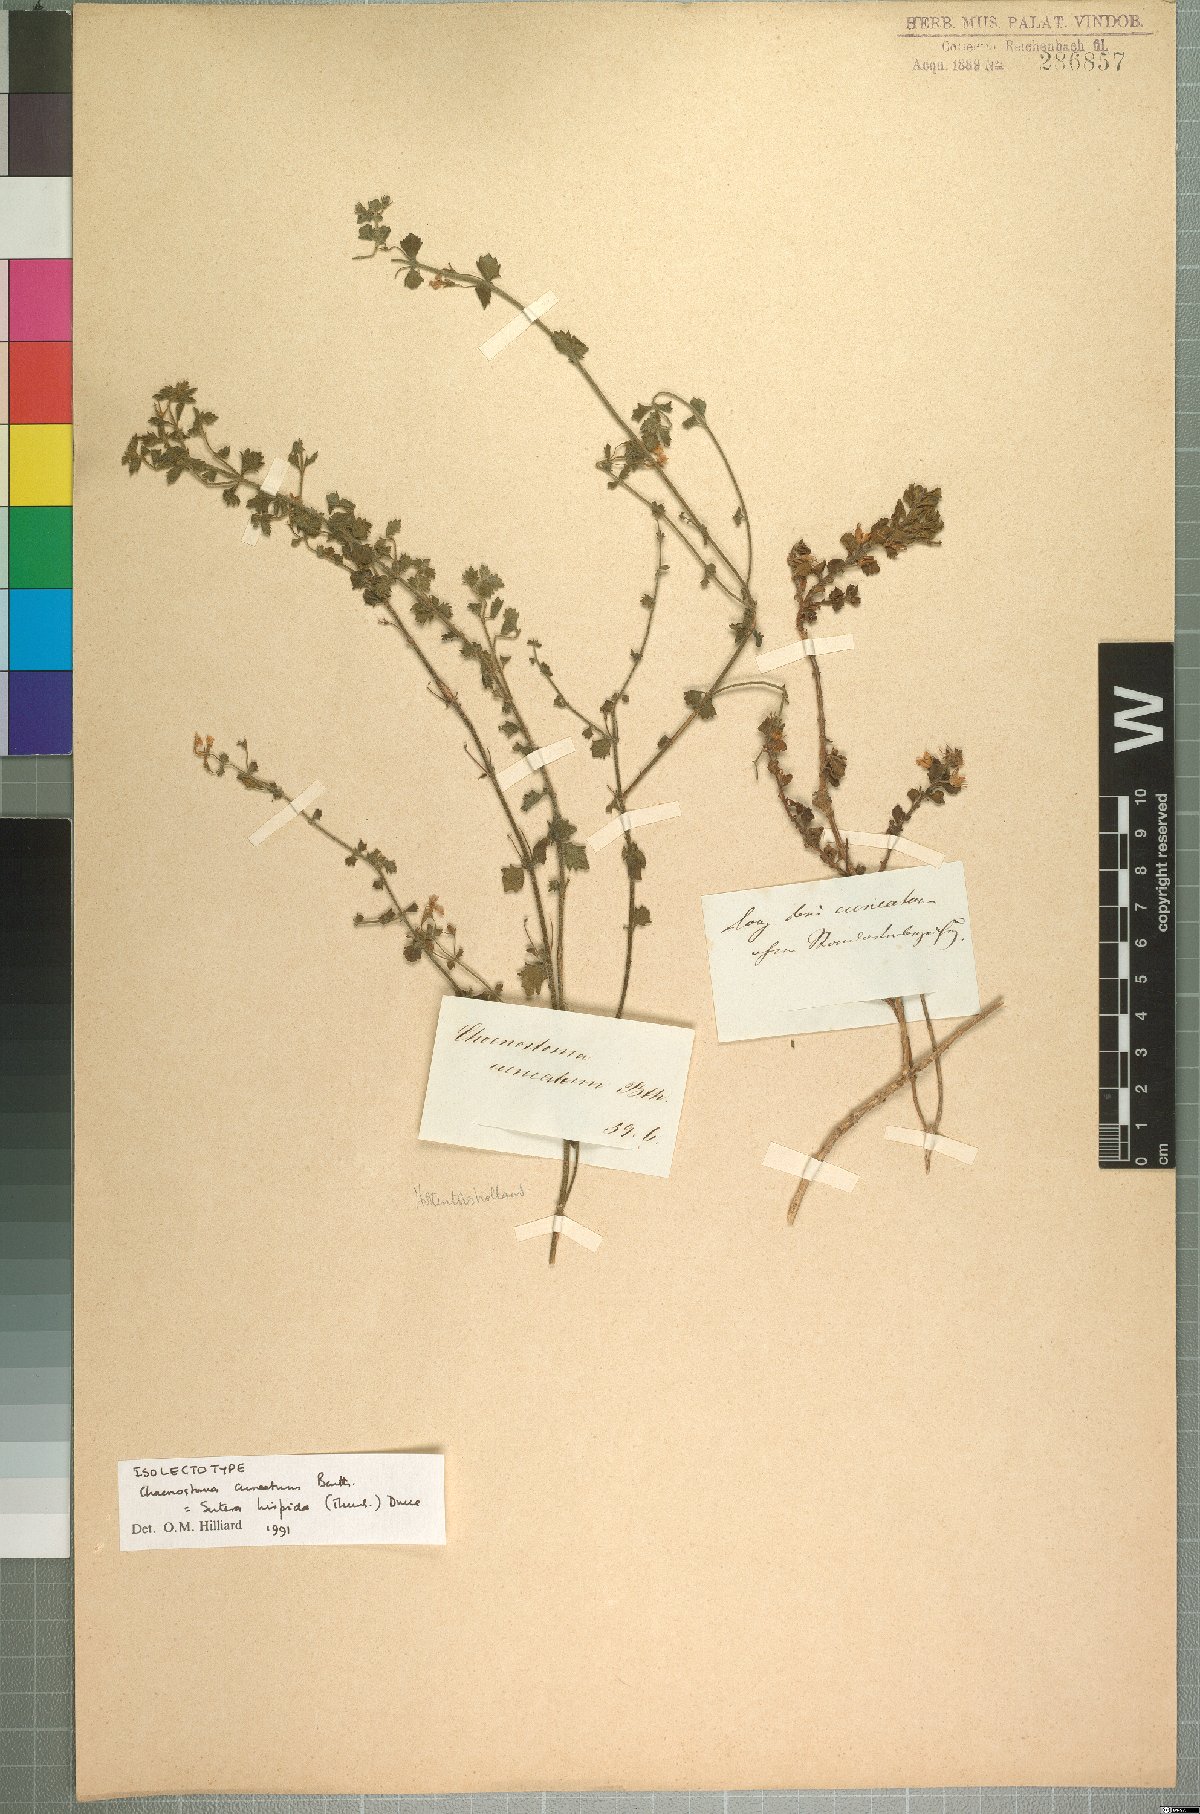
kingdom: Plantae
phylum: Tracheophyta
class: Magnoliopsida
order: Lamiales
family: Scrophulariaceae
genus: Chaenostoma
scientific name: Chaenostoma hispidum
